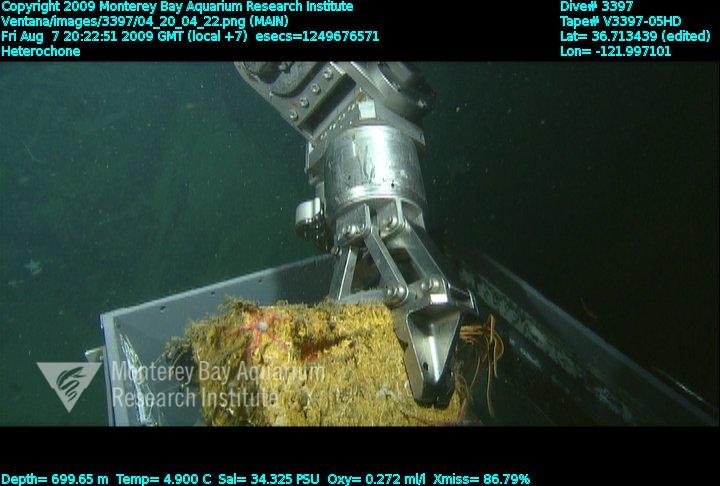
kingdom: Animalia
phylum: Porifera
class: Hexactinellida
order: Sceptrulophora
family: Aphrocallistidae
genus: Heterochone
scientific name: Heterochone
